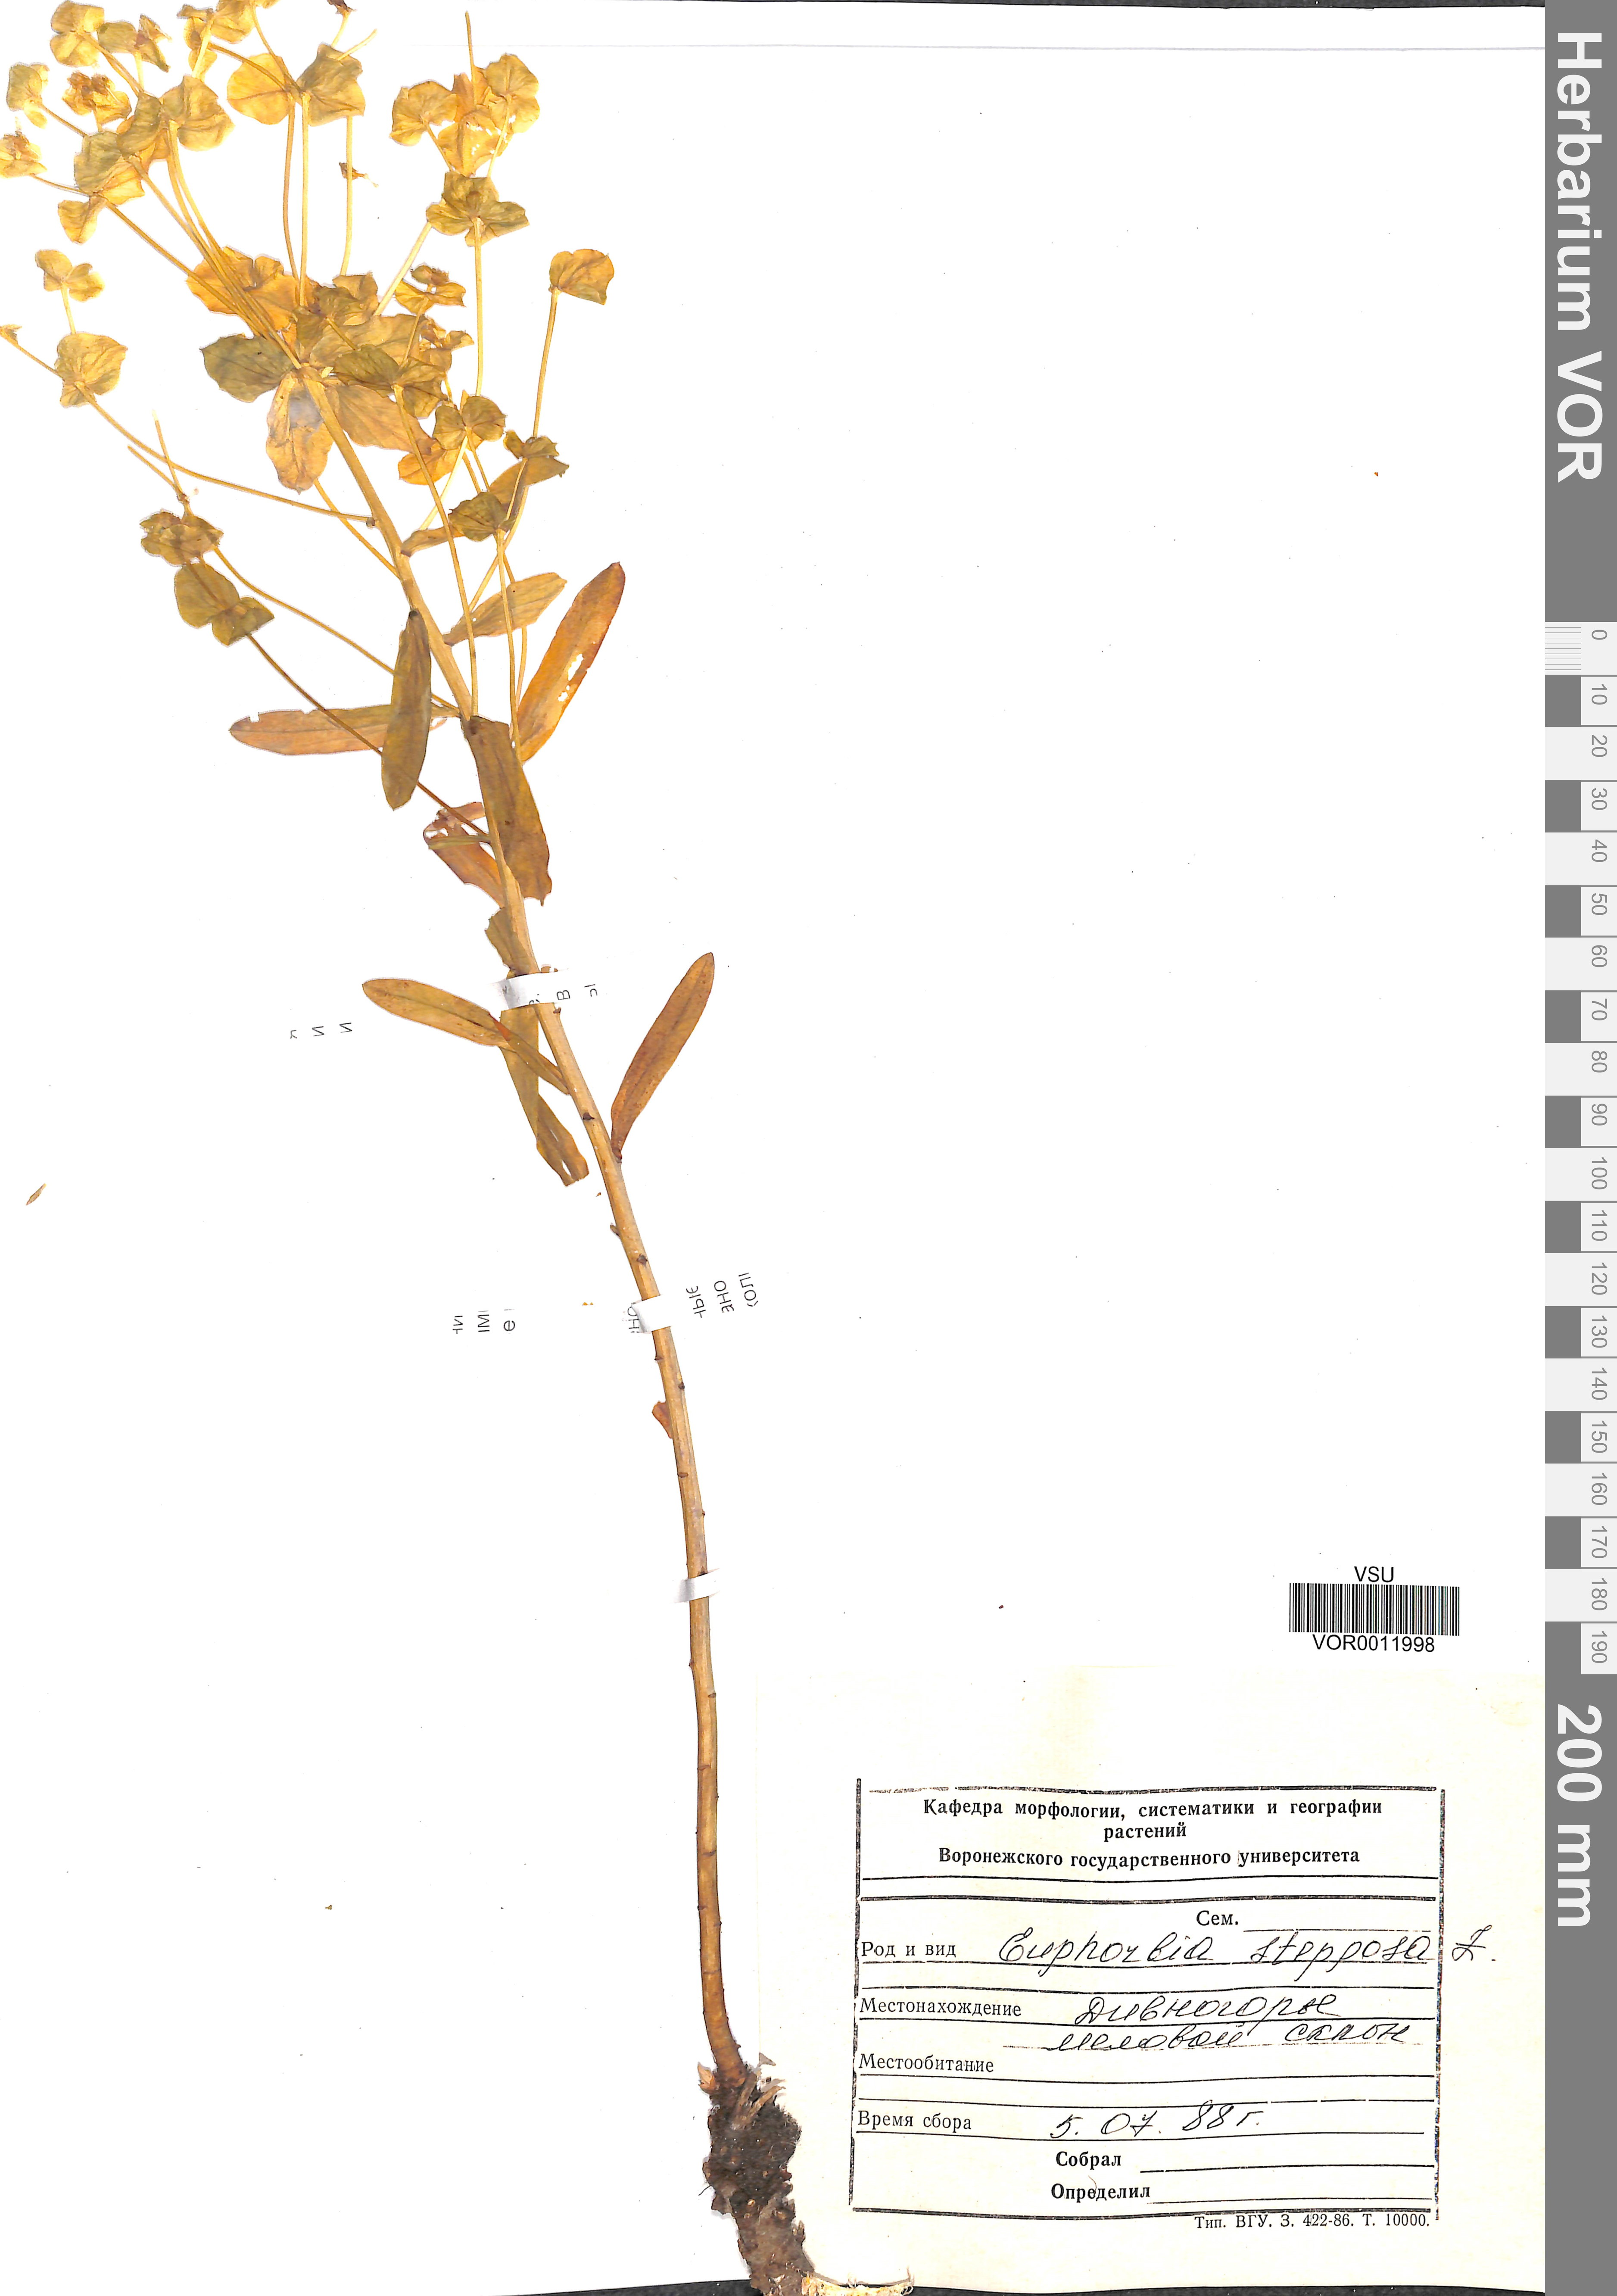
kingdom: Plantae
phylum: Tracheophyta
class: Magnoliopsida
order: Malpighiales
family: Euphorbiaceae
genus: Euphorbia
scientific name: Euphorbia stepposa
